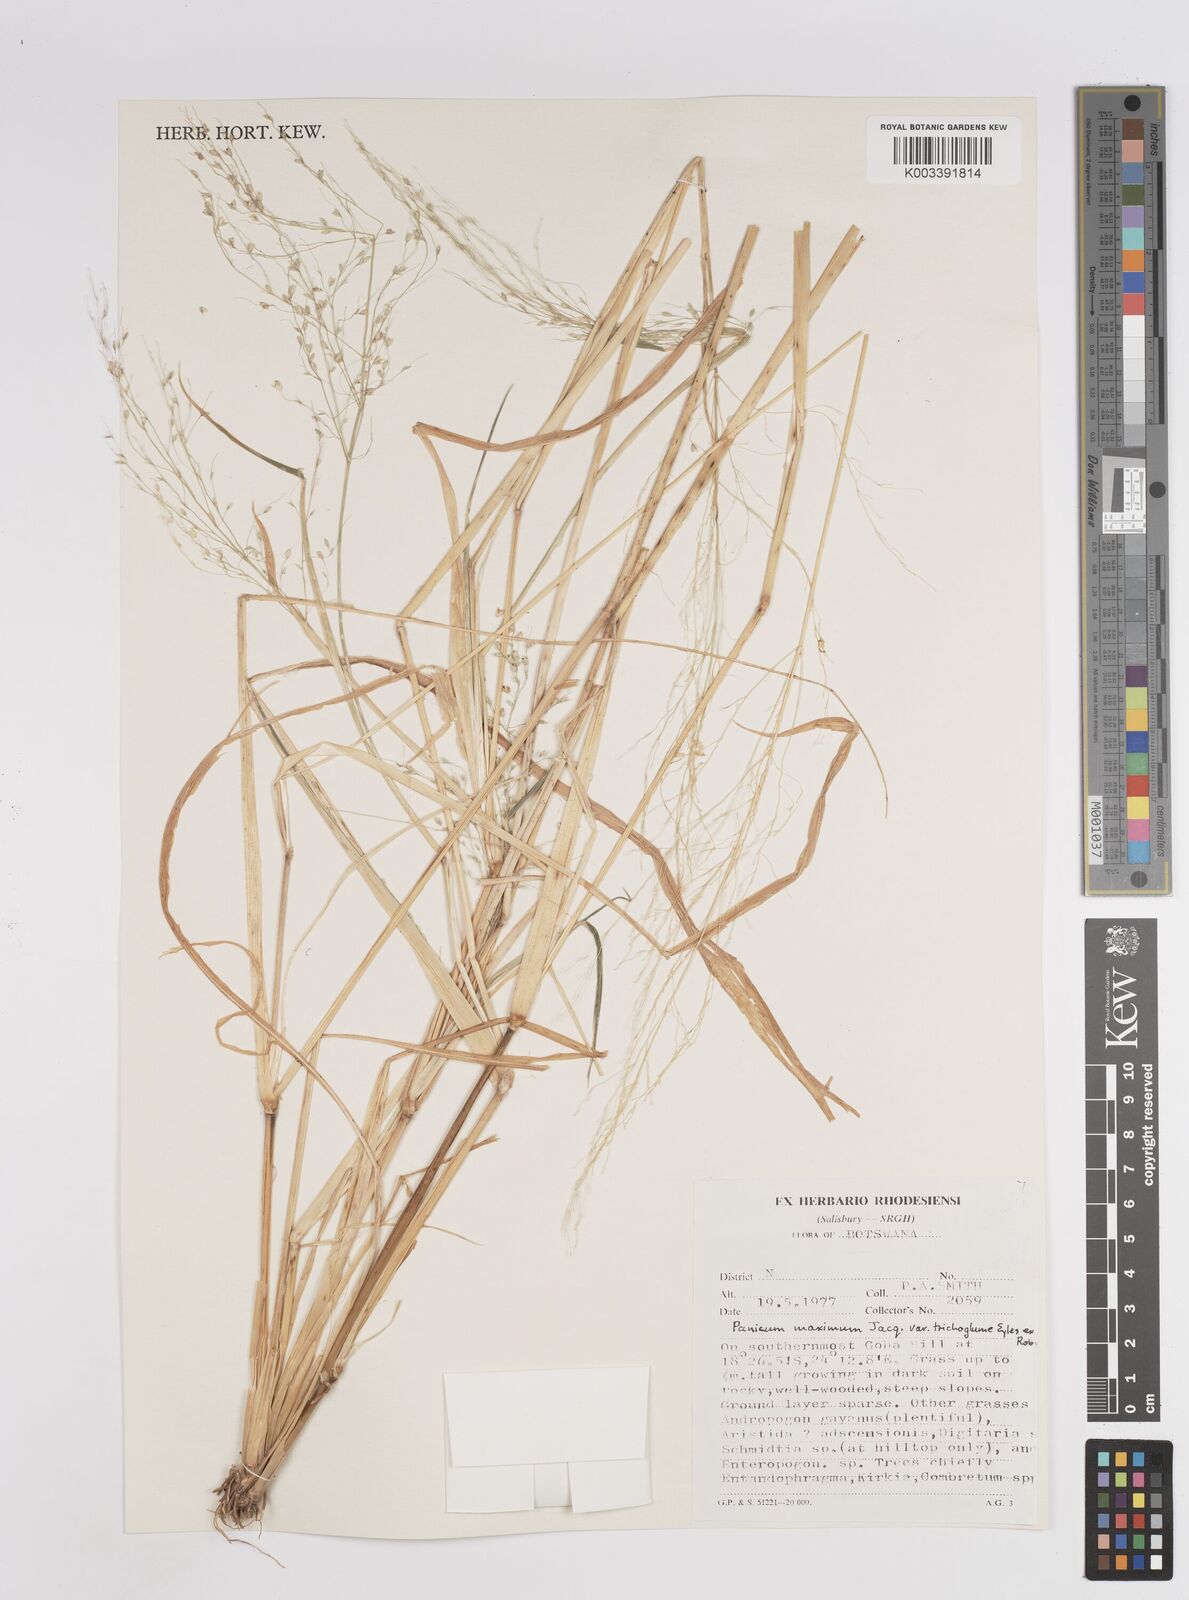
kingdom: Plantae
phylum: Tracheophyta
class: Liliopsida
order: Poales
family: Poaceae
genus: Megathyrsus
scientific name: Megathyrsus maximus
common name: Guineagrass
